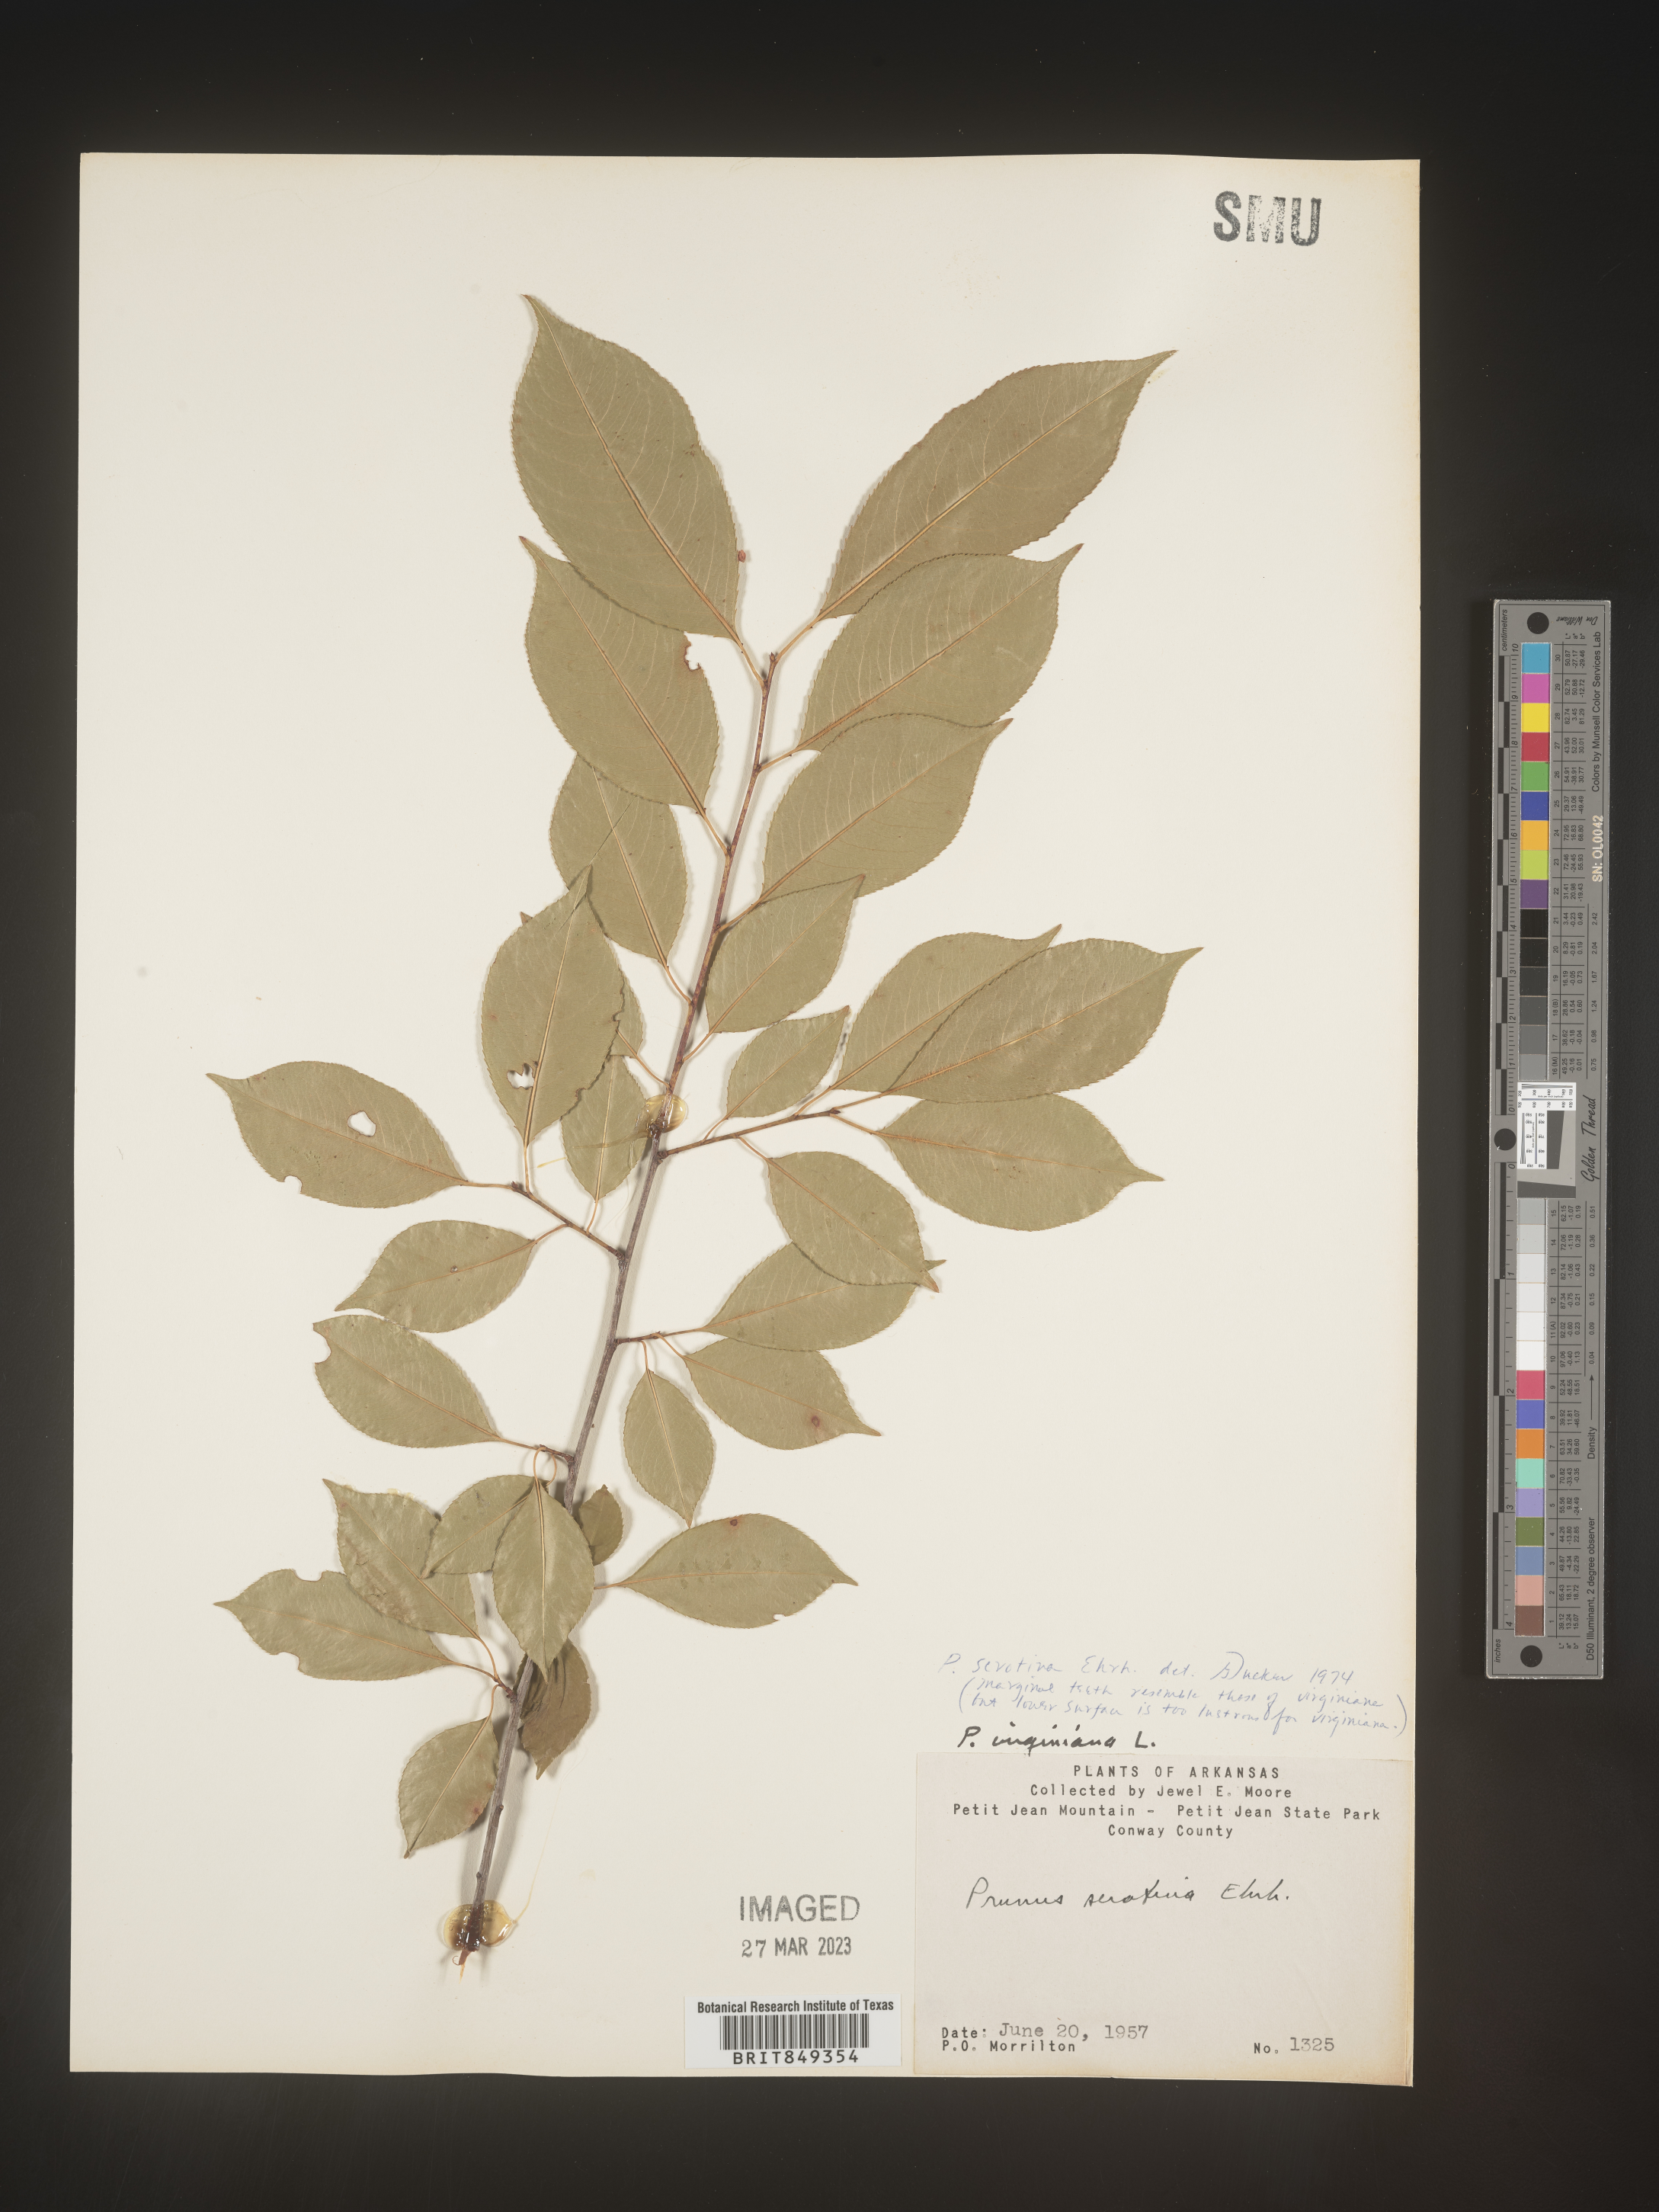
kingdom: Plantae
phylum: Tracheophyta
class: Magnoliopsida
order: Rosales
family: Rosaceae
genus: Prunus
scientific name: Prunus serotina
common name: Black cherry
